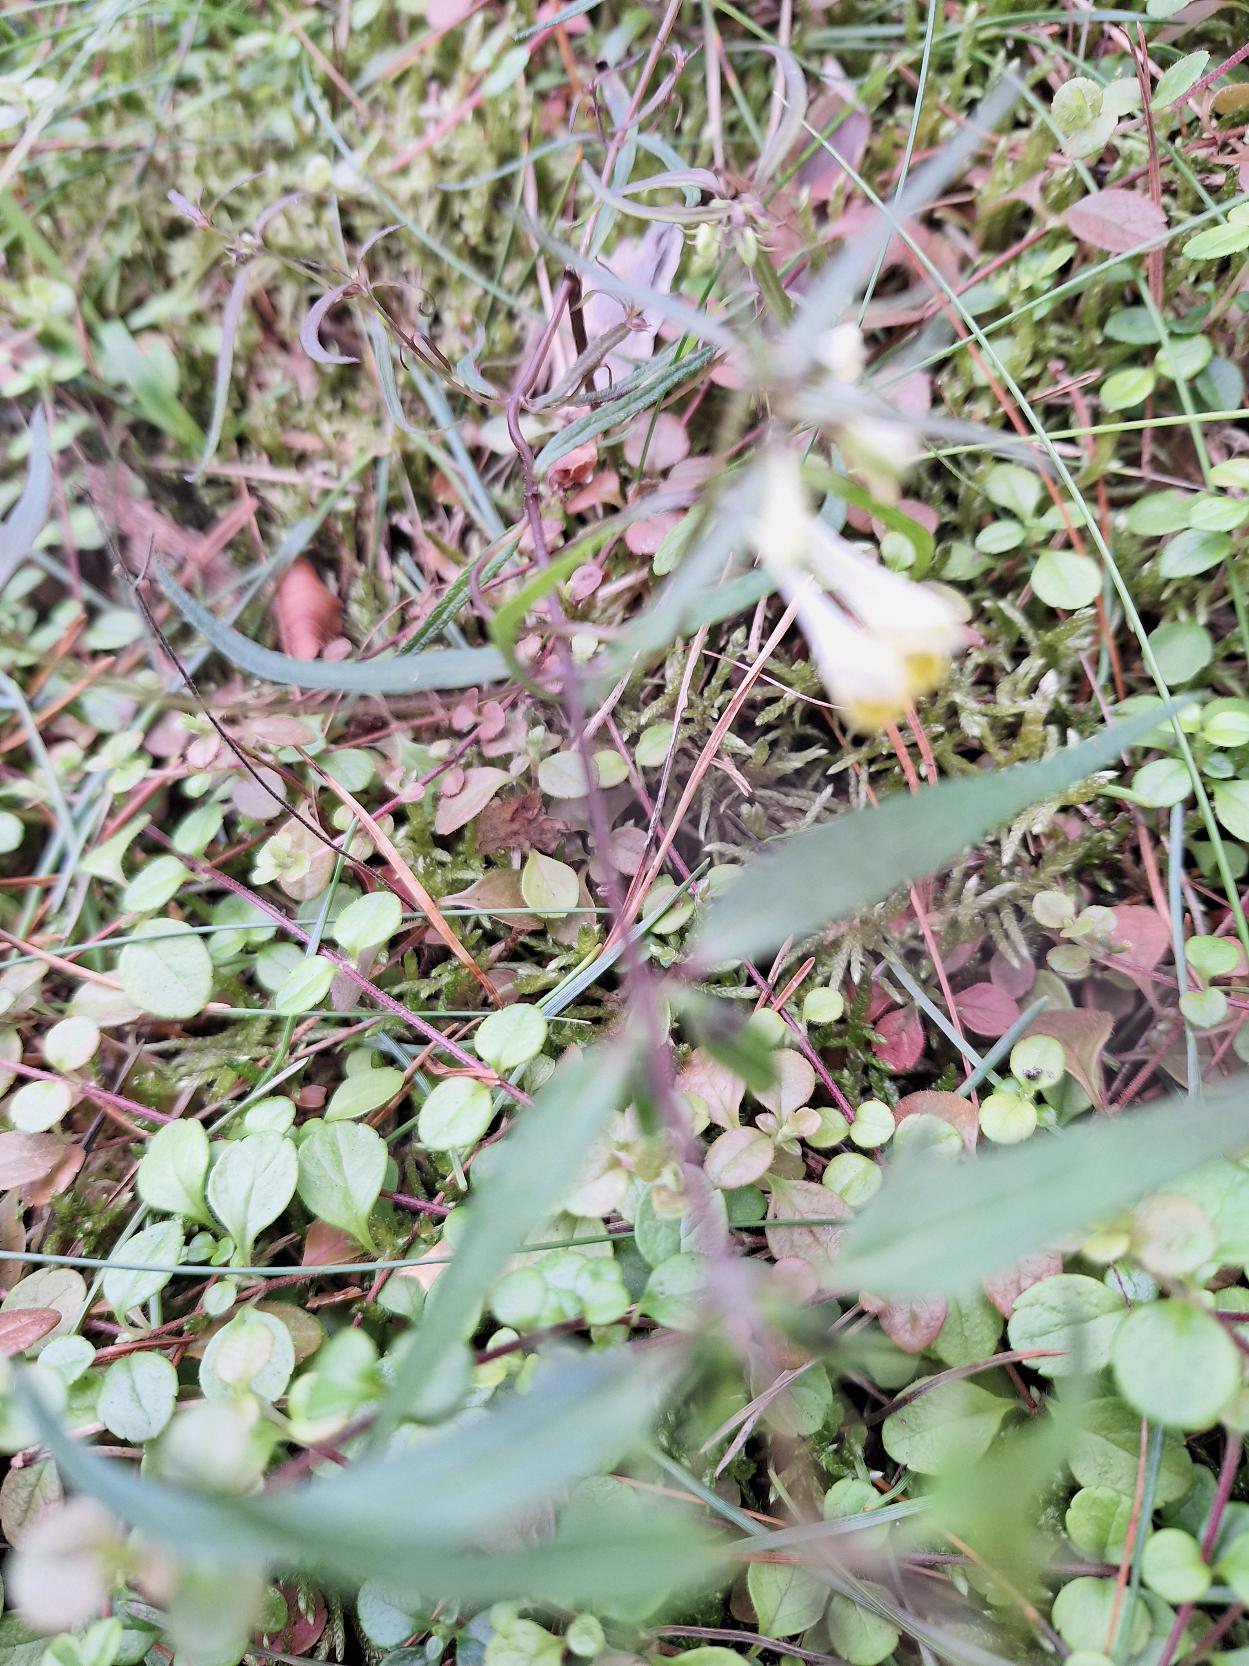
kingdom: Plantae
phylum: Tracheophyta
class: Magnoliopsida
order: Lamiales
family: Orobanchaceae
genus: Melampyrum
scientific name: Melampyrum pratense
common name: Almindelig kohvede
